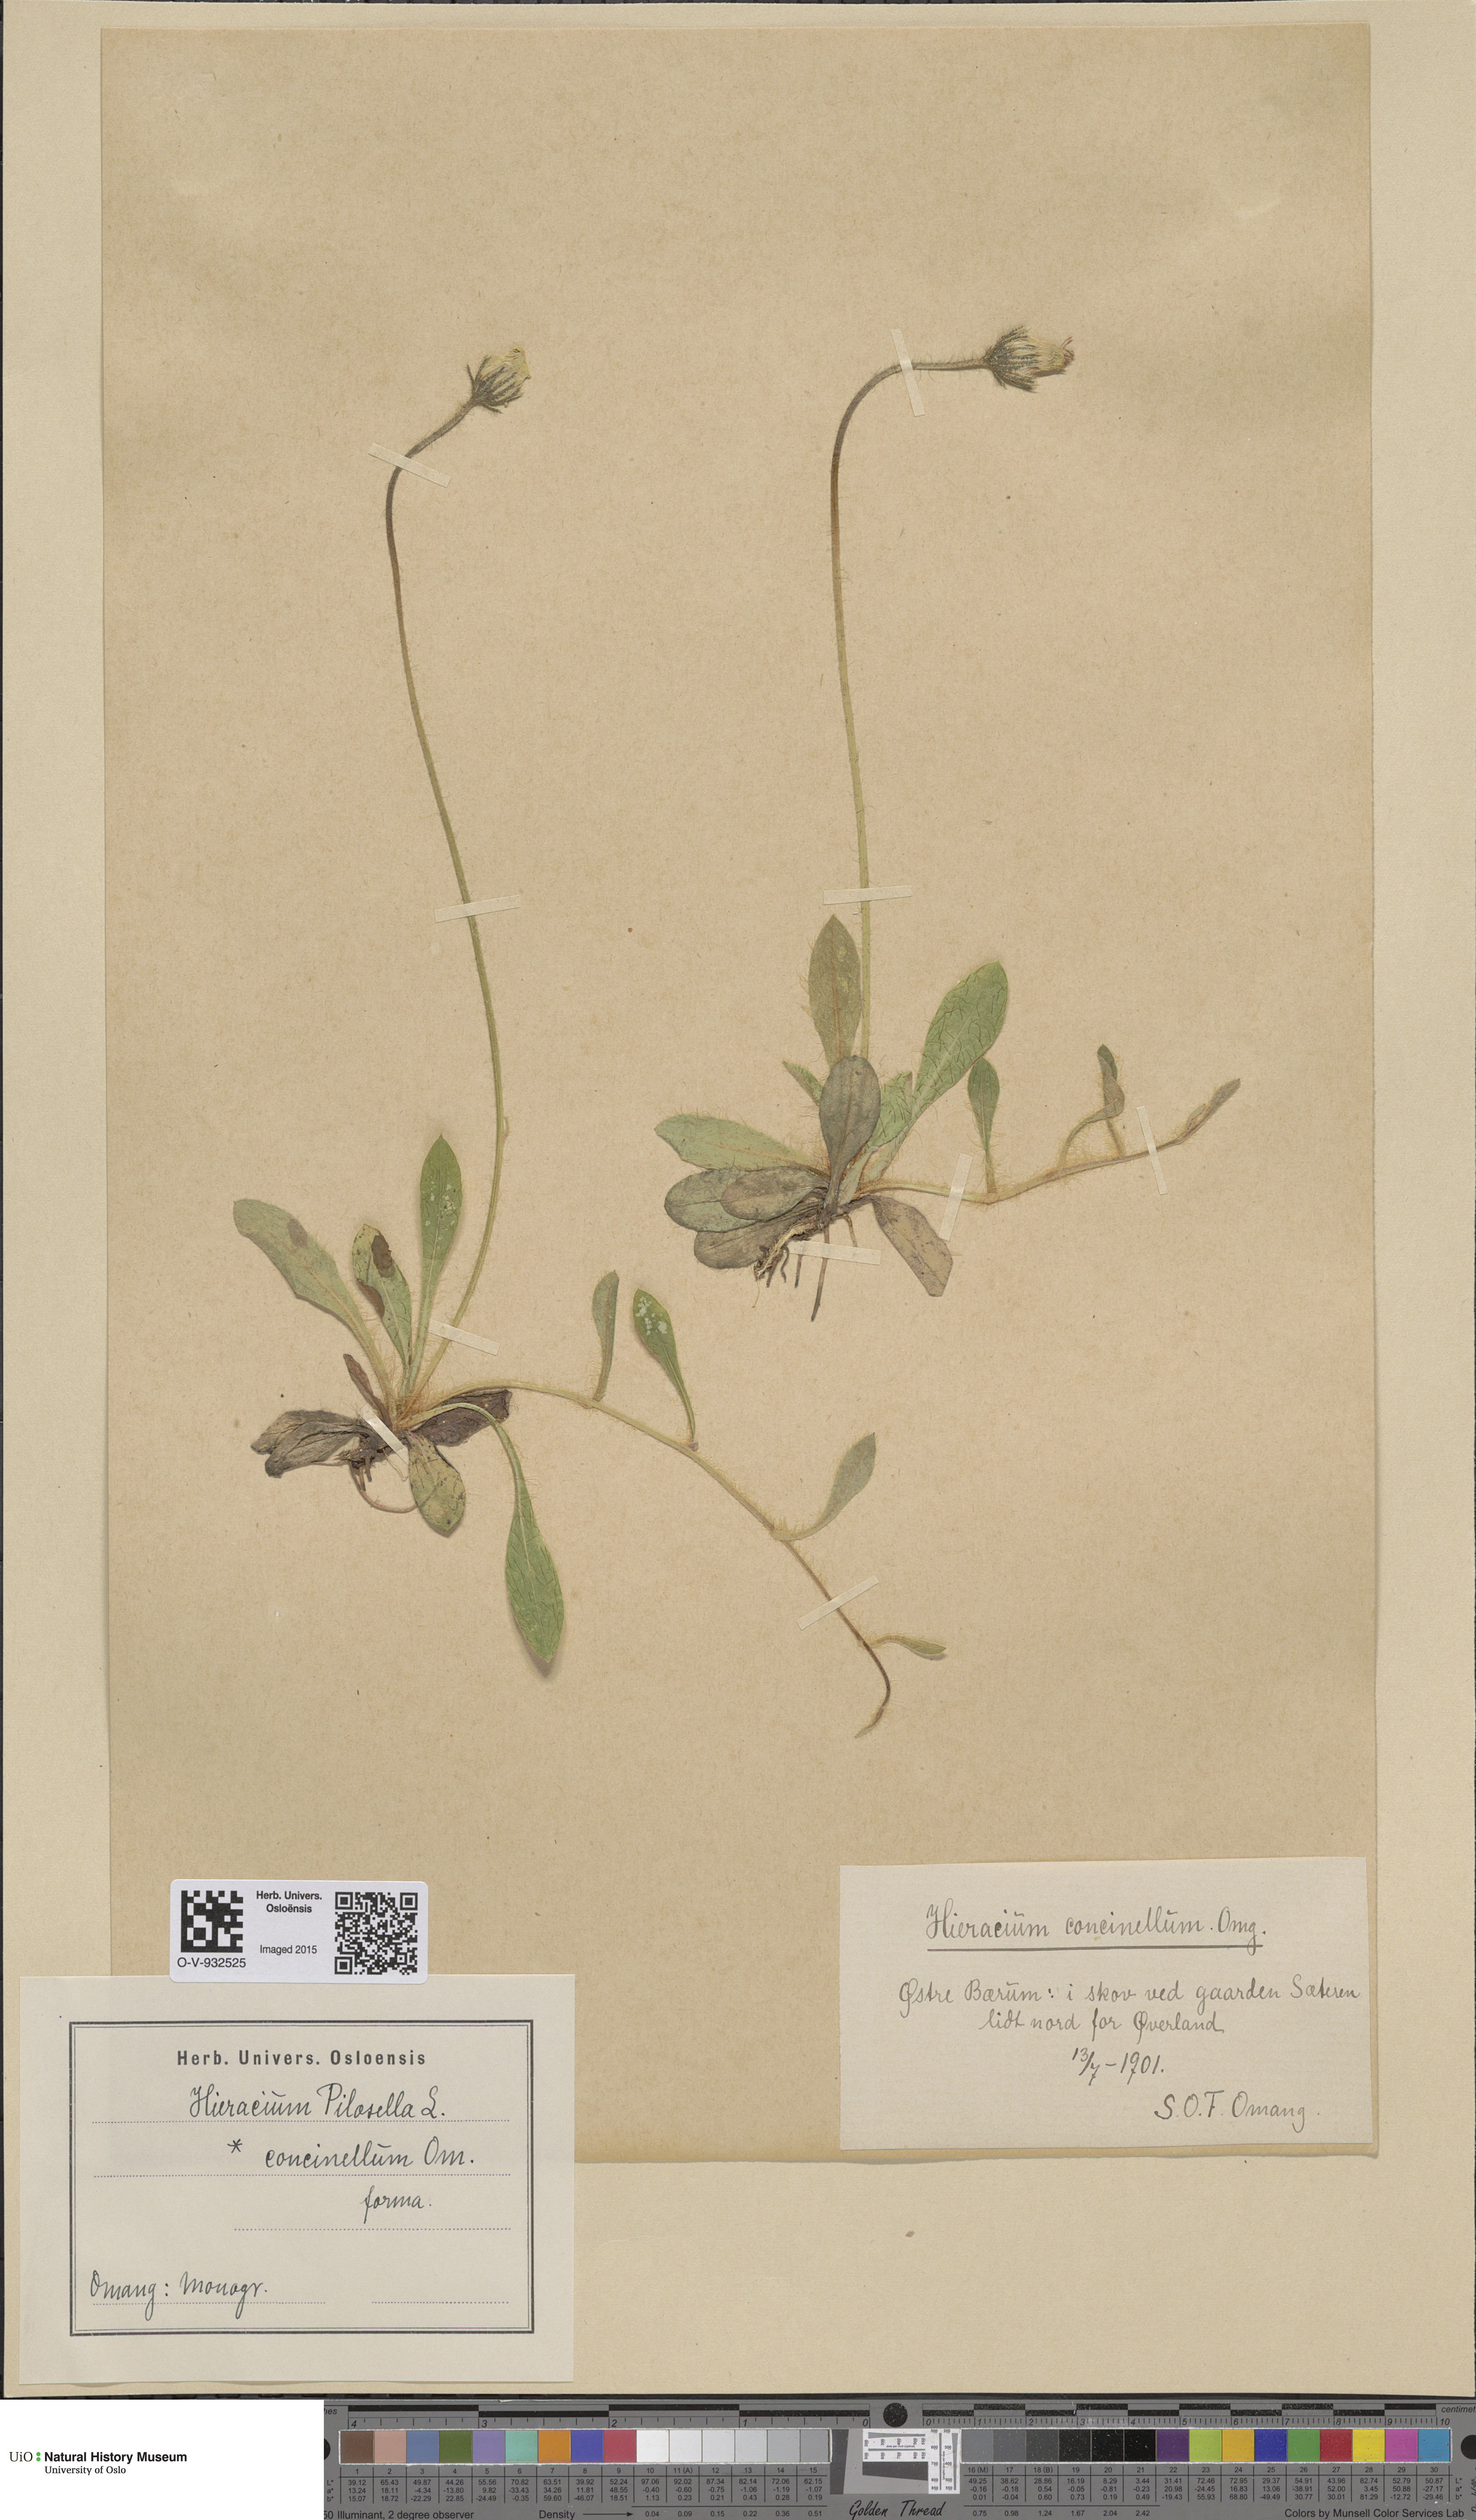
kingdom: Plantae
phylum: Tracheophyta
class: Magnoliopsida
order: Asterales
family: Asteraceae
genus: Pilosella
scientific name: Pilosella officinarum
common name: Mouse-ear hawkweed
